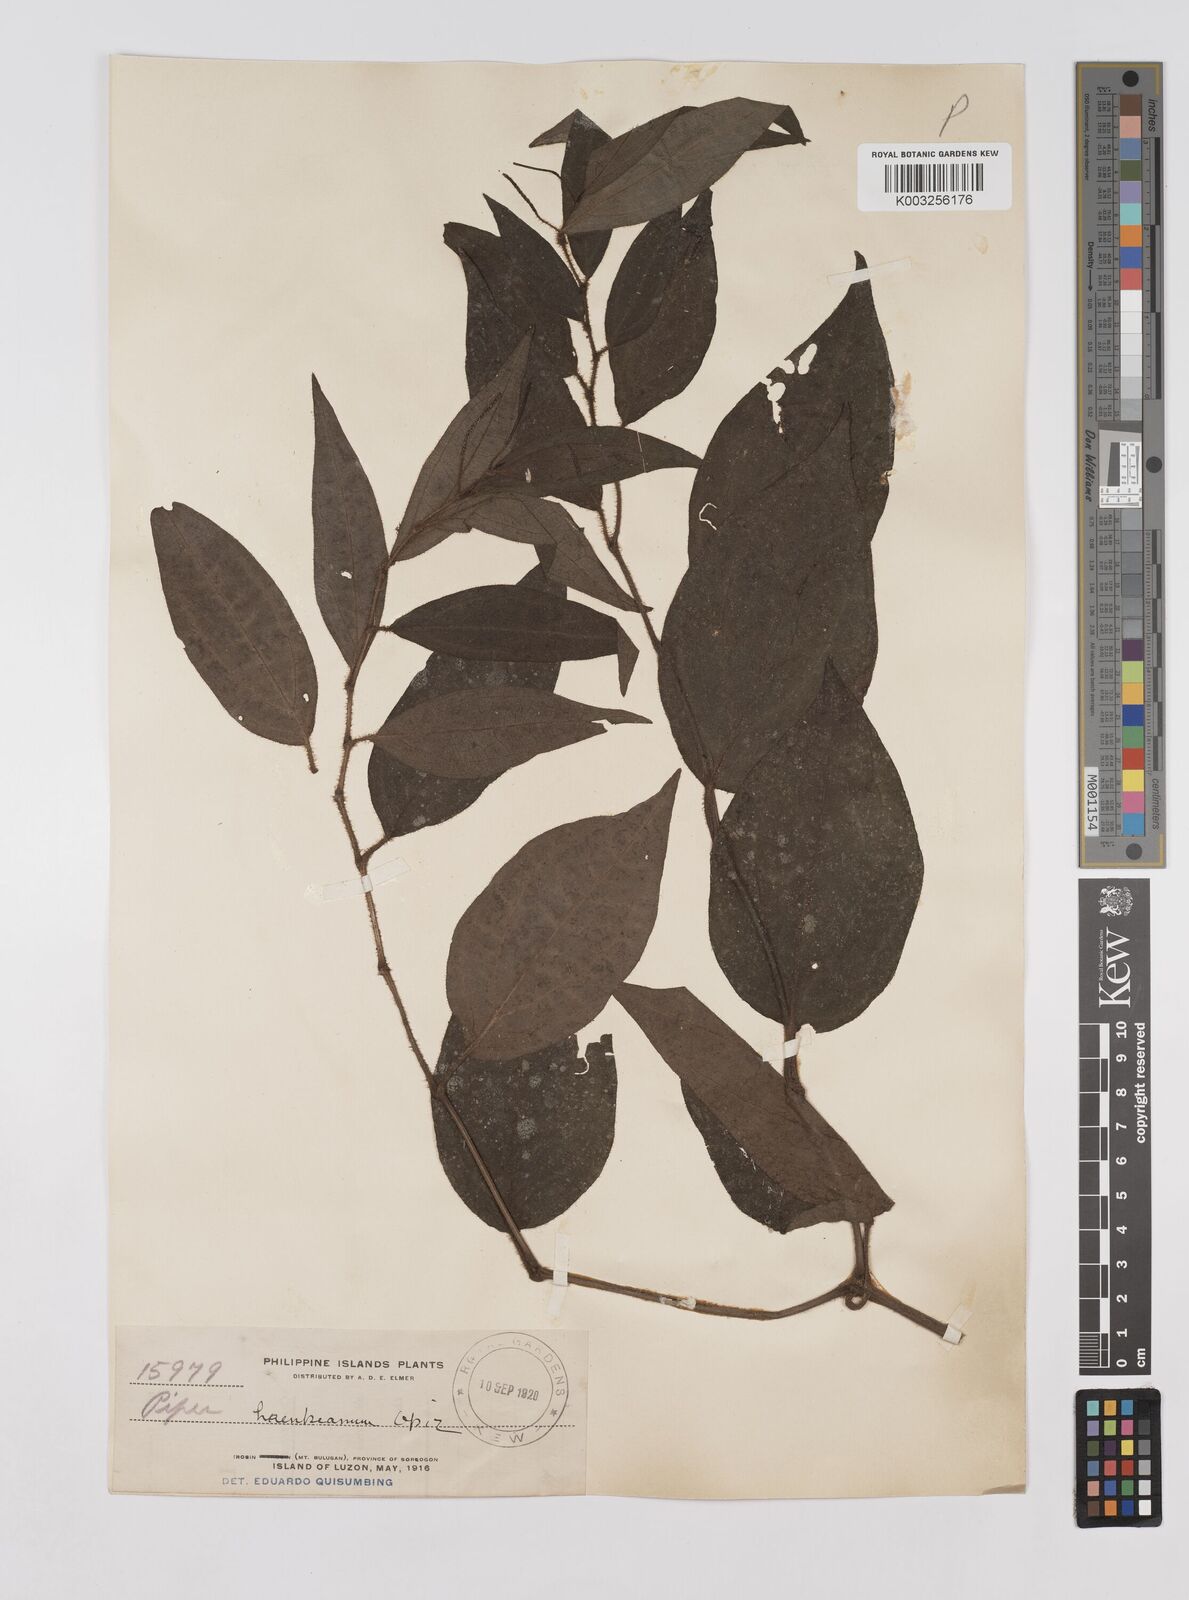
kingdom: Plantae
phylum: Tracheophyta
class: Magnoliopsida
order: Piperales
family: Piperaceae
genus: Piper
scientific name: Piper lanatum
